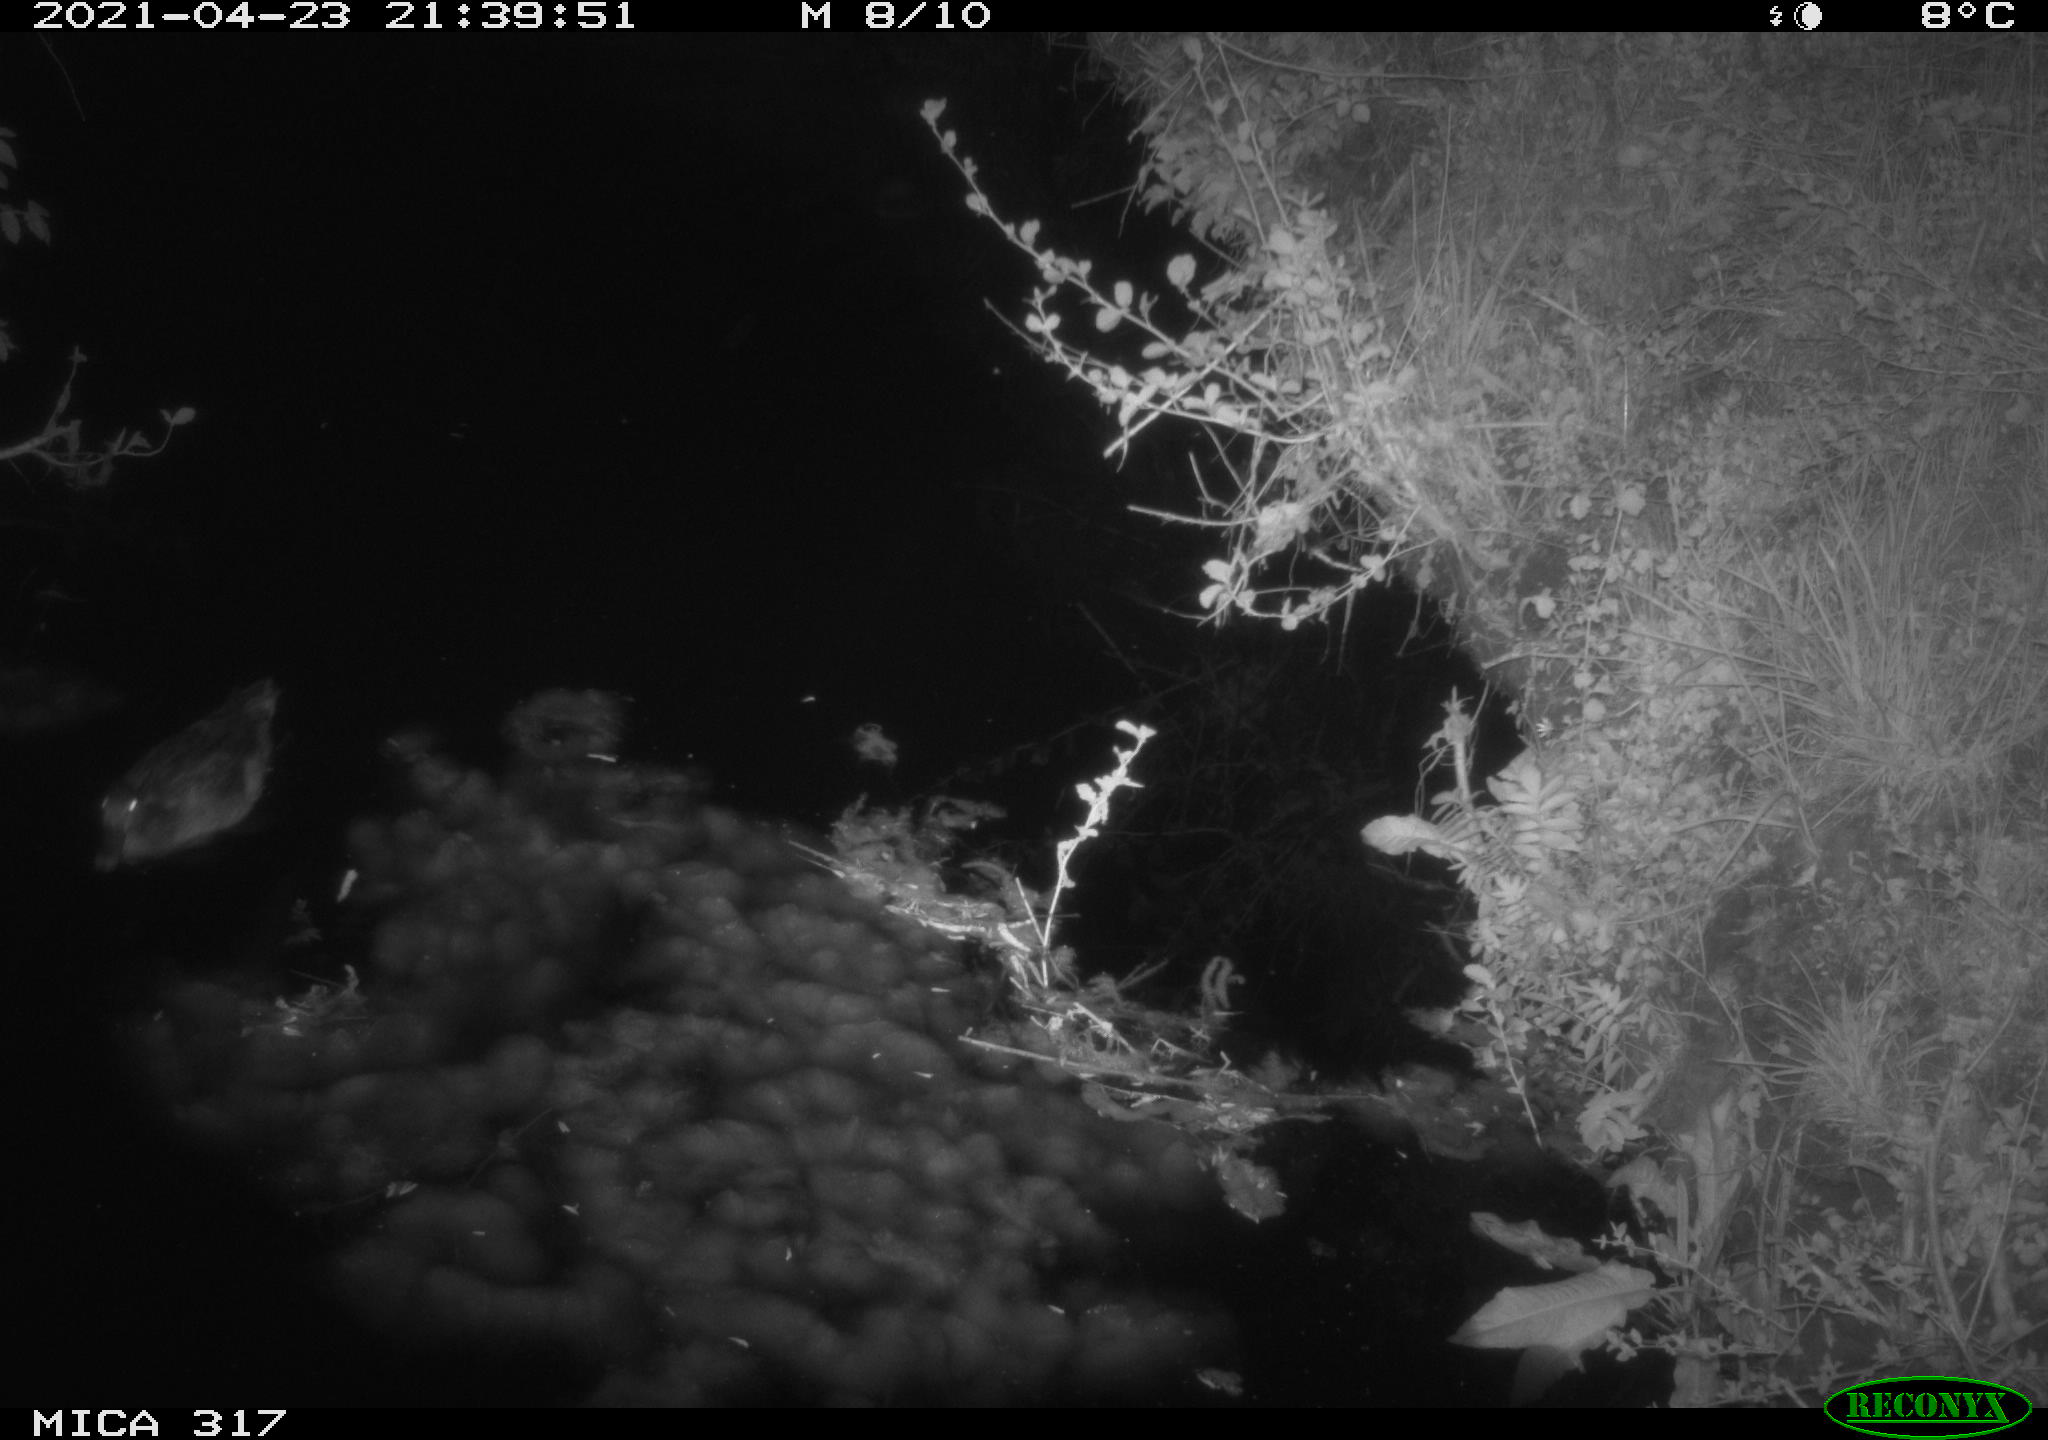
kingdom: Animalia
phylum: Chordata
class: Aves
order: Anseriformes
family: Anatidae
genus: Anas
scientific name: Anas
